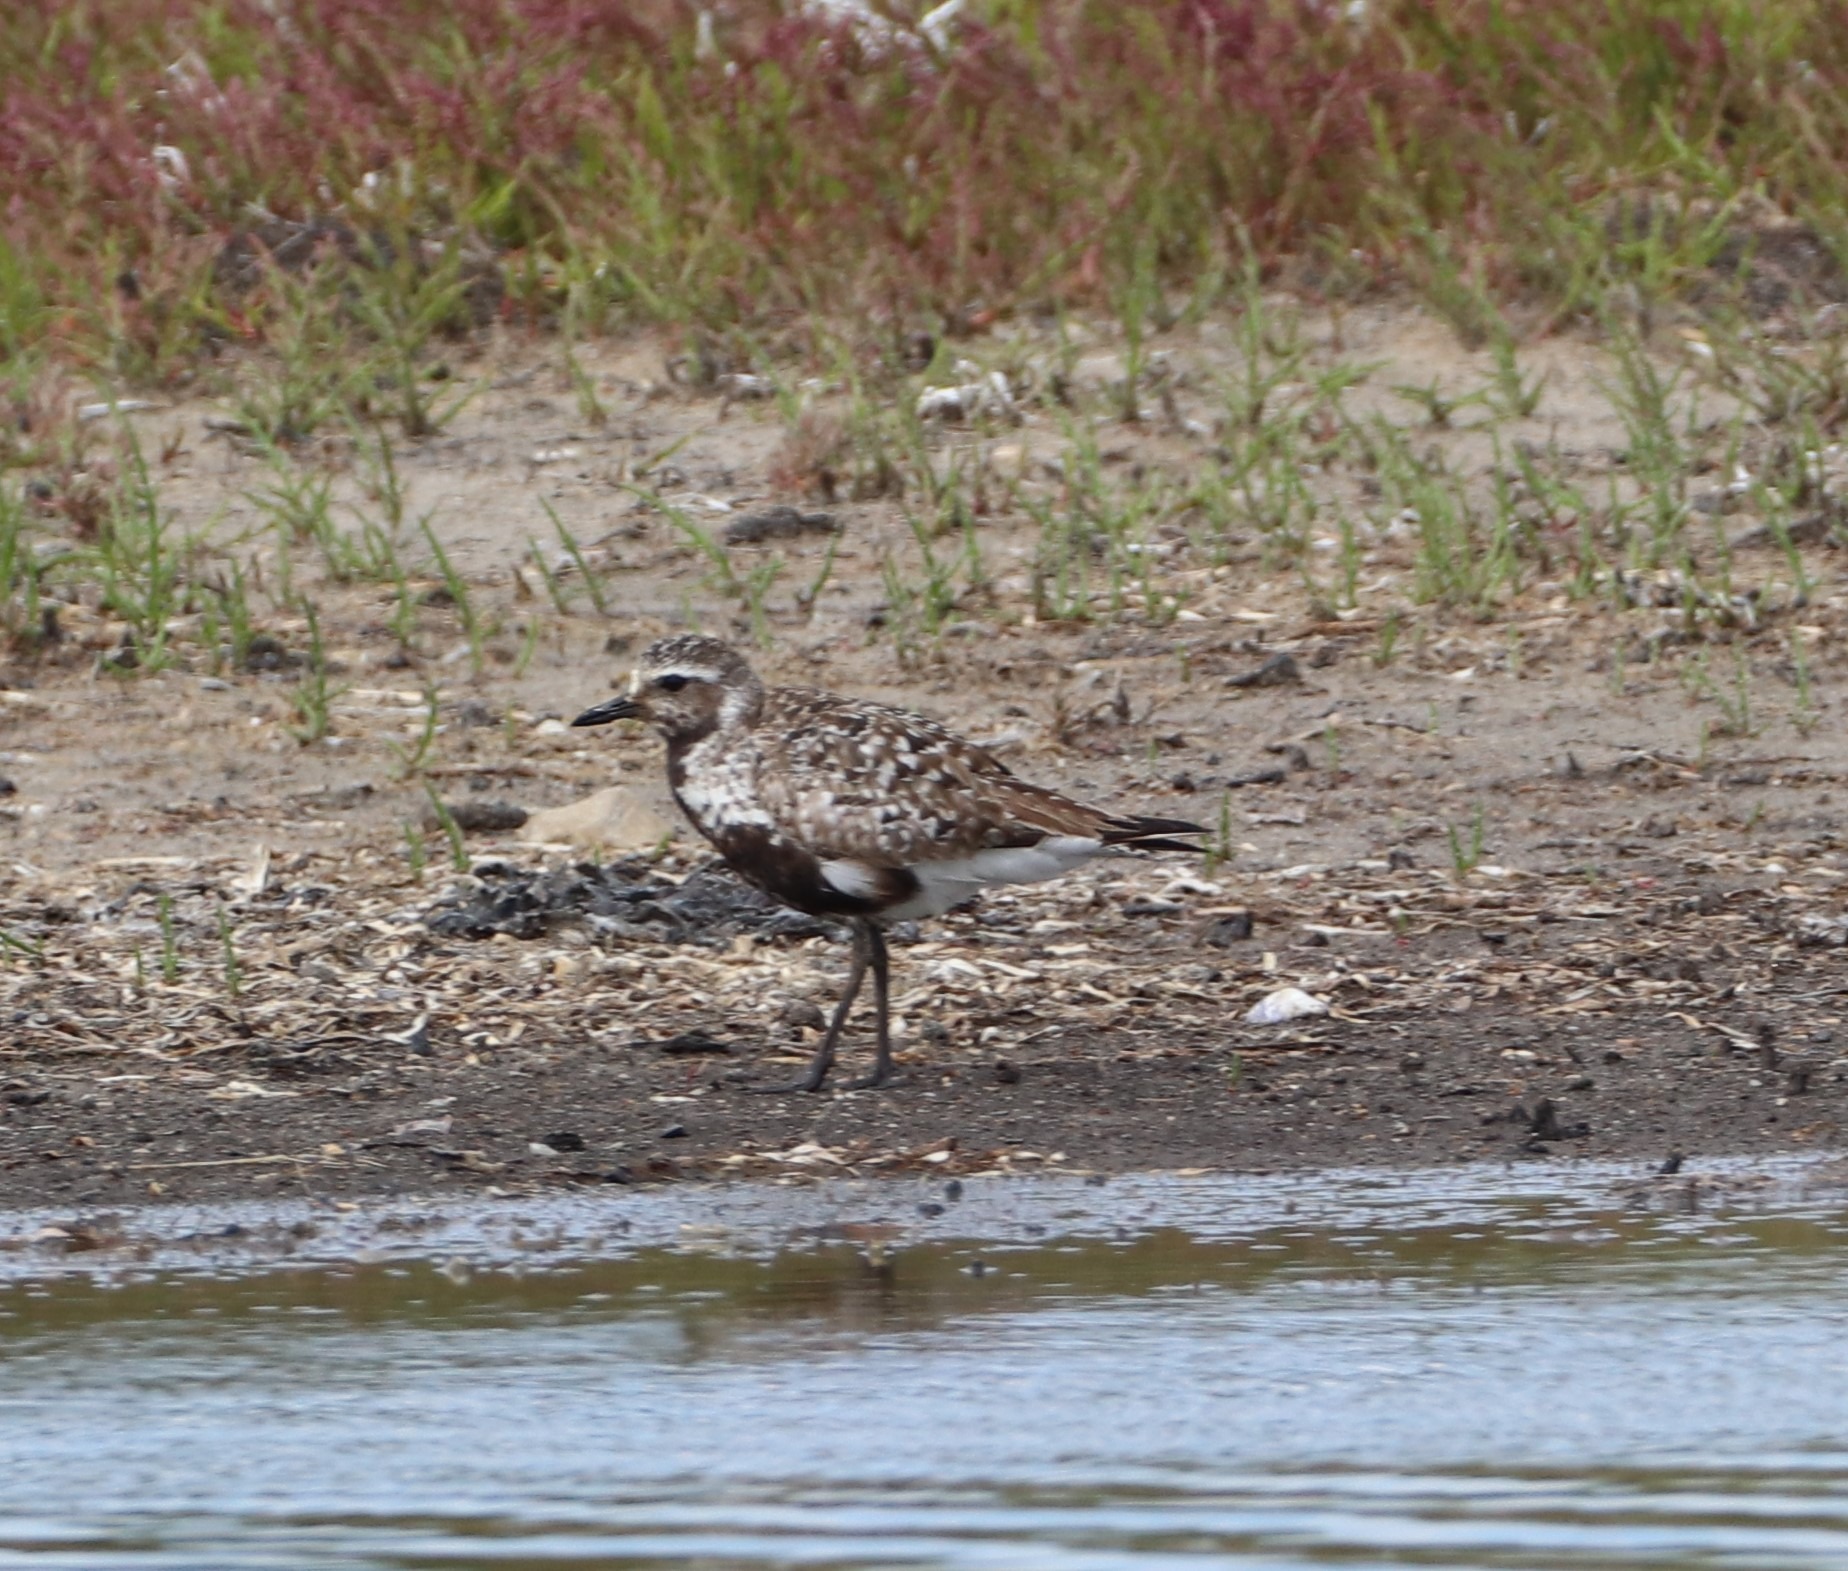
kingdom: Animalia
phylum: Chordata
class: Aves
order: Charadriiformes
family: Charadriidae
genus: Pluvialis
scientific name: Pluvialis squatarola
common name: Strandhjejle
